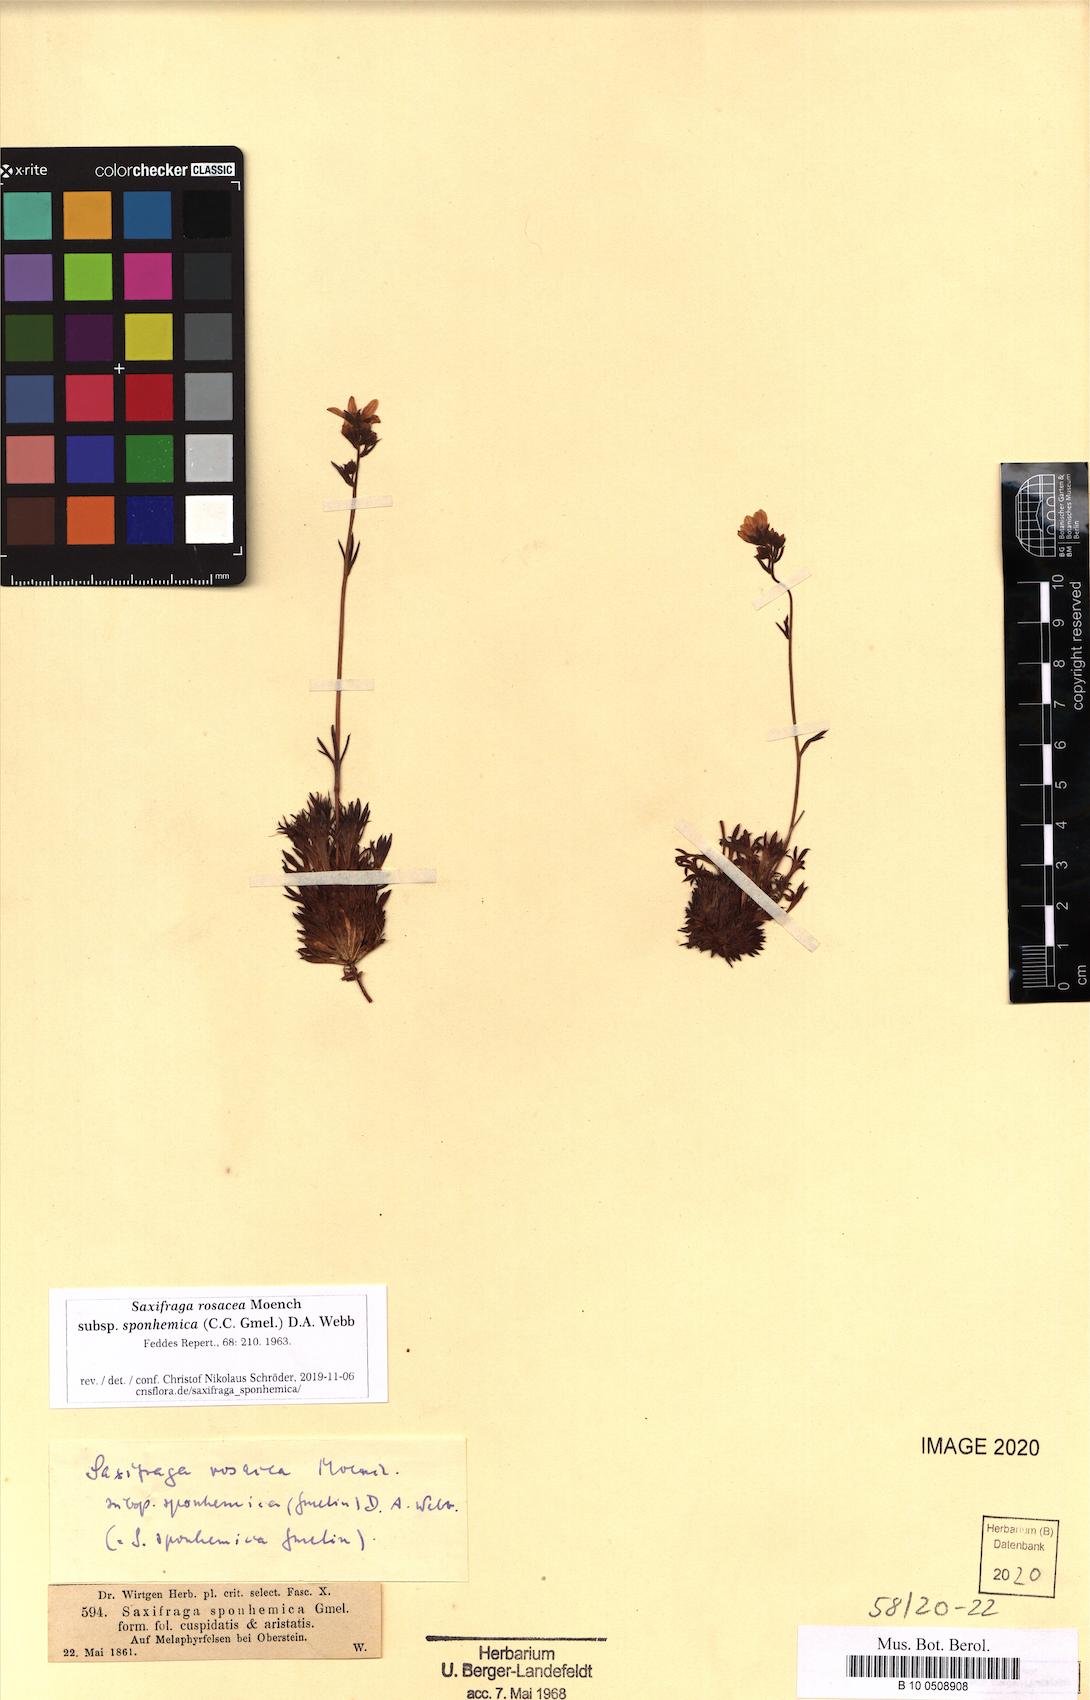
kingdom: Plantae
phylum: Tracheophyta
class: Magnoliopsida
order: Saxifragales
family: Saxifragaceae
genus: Saxifraga
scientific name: Saxifraga rosacea
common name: Irish saxifrage
